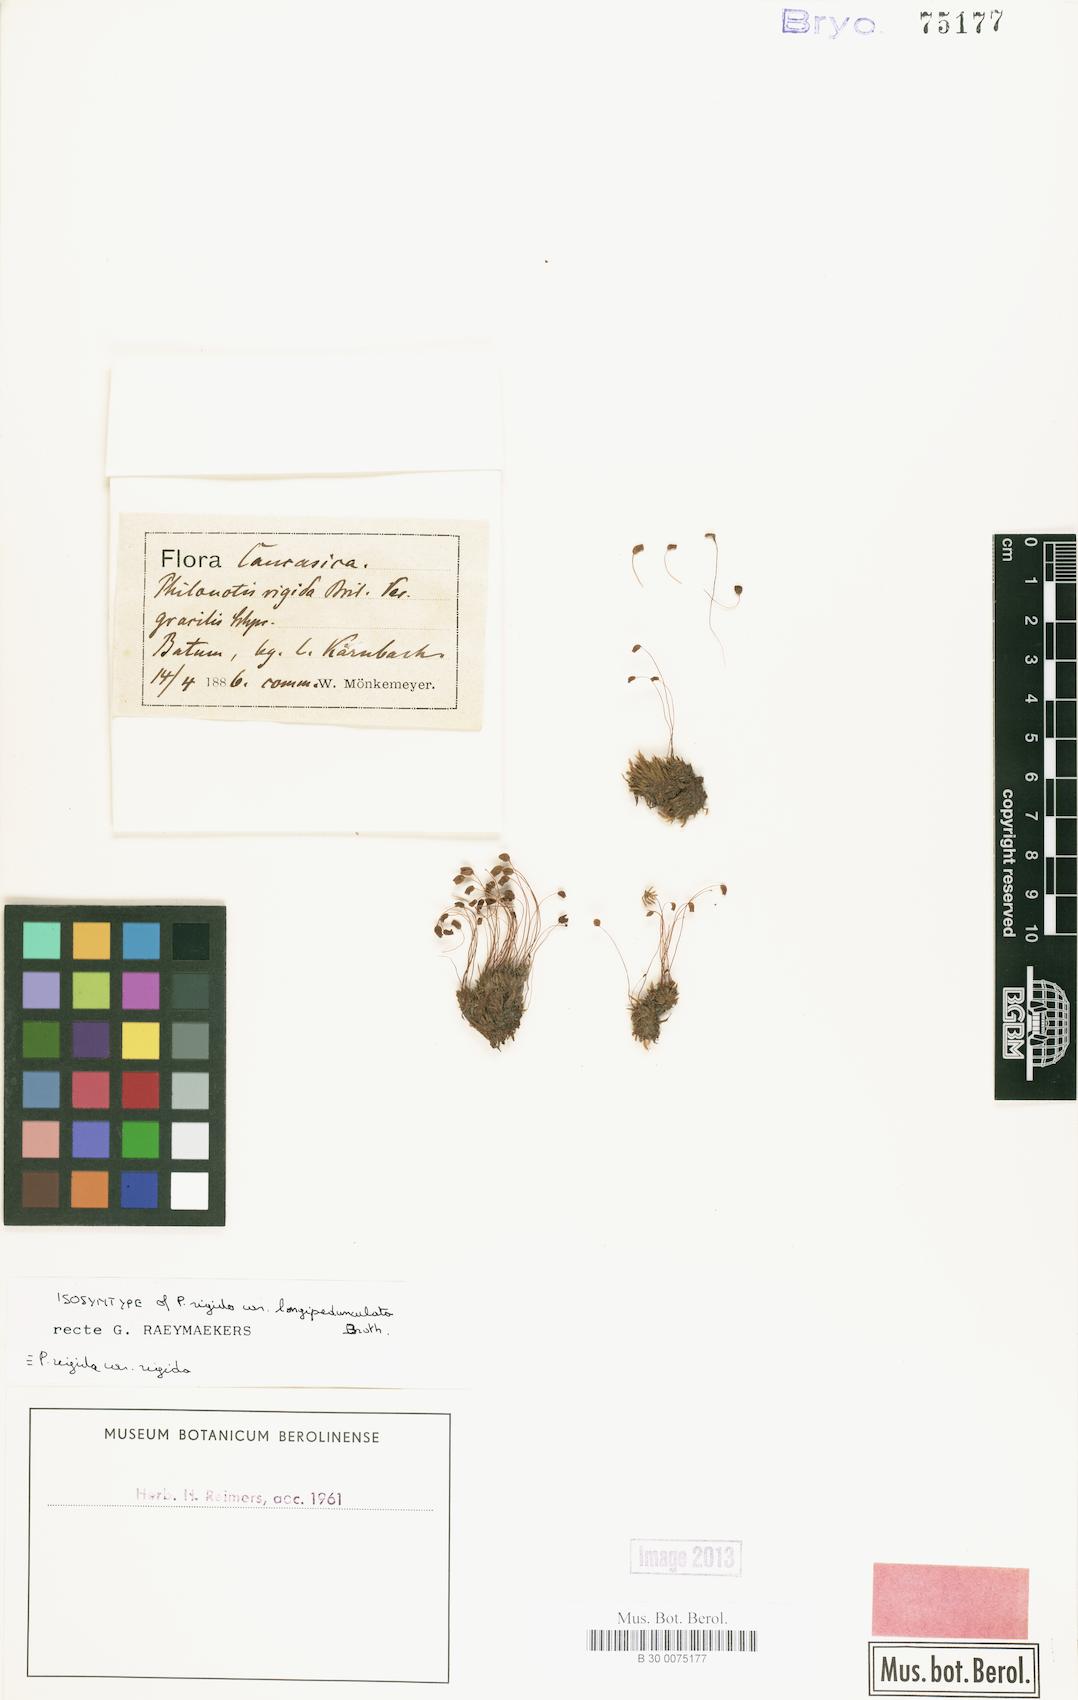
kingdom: Plantae
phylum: Bryophyta
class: Bryopsida
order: Bartramiales
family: Bartramiaceae
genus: Philonotis
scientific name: Philonotis rigida
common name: Rigid apple-moss
